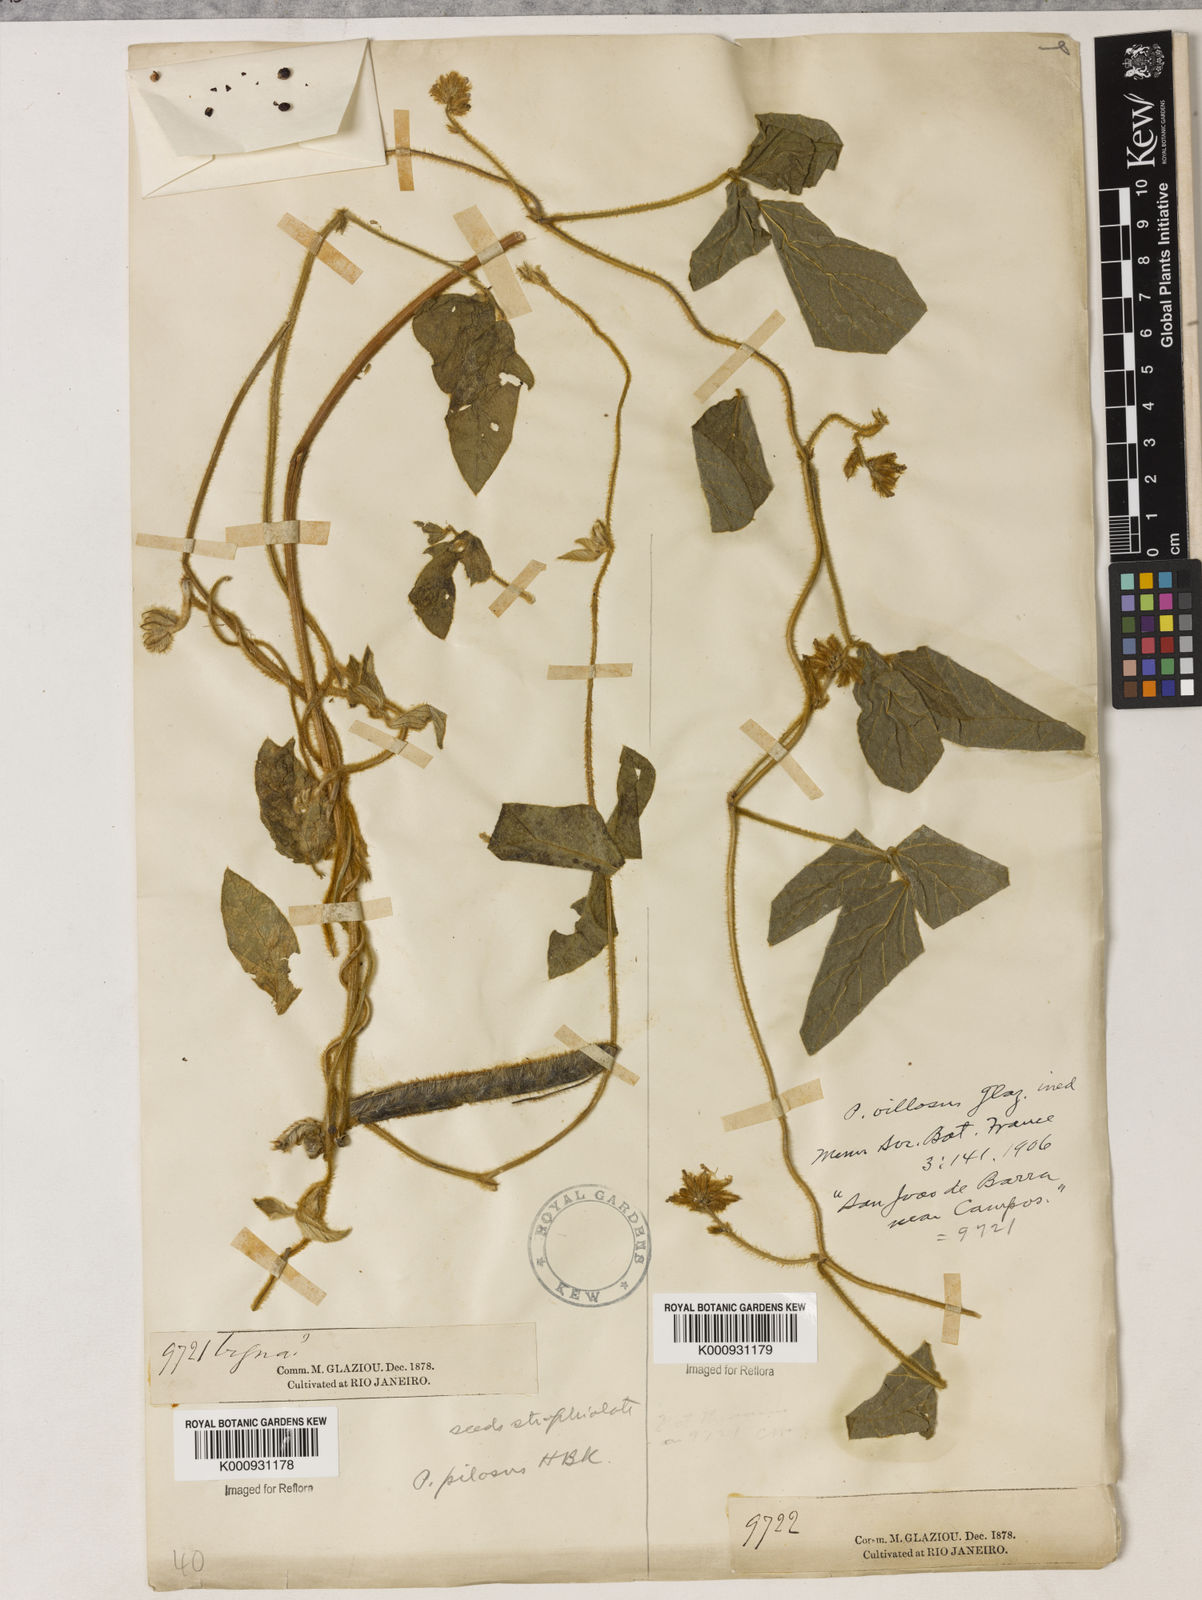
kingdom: Plantae
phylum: Tracheophyta
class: Magnoliopsida
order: Fabales
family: Fabaceae
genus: Vigna
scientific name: Vigna lasiocarpa
